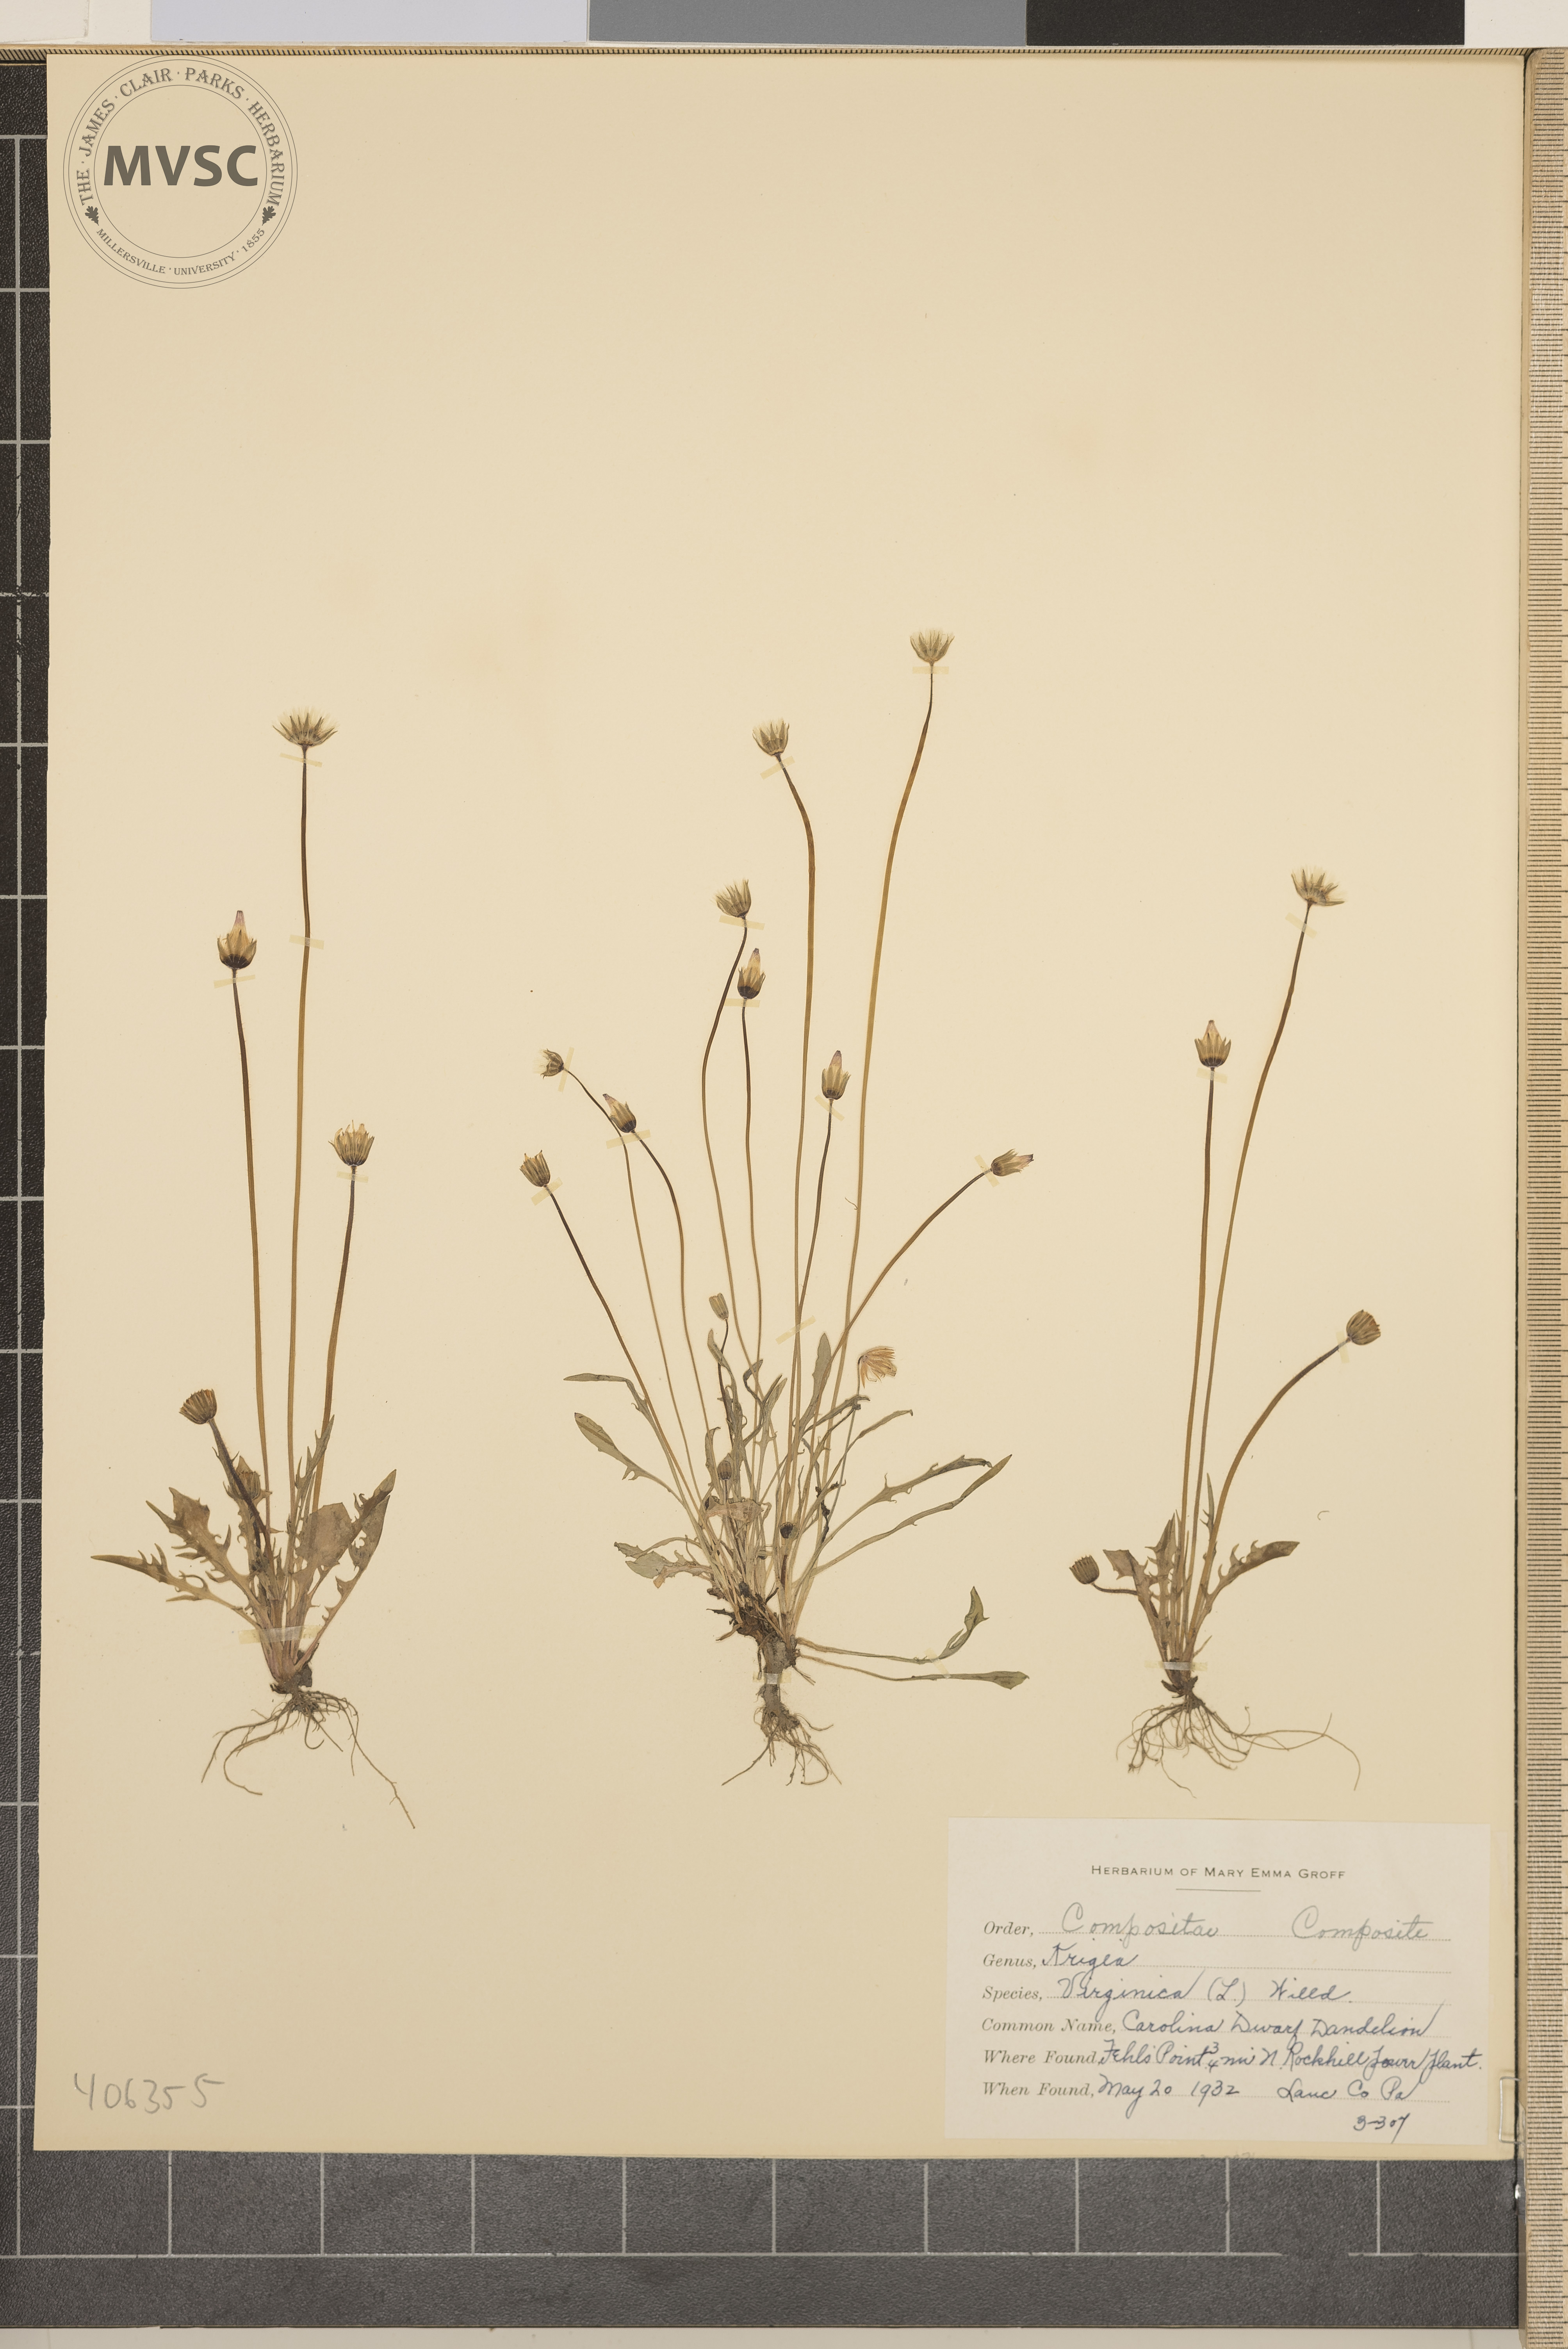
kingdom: Plantae
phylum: Tracheophyta
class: Magnoliopsida
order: Asterales
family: Asteraceae
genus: Krigia
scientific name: Krigia virginica
